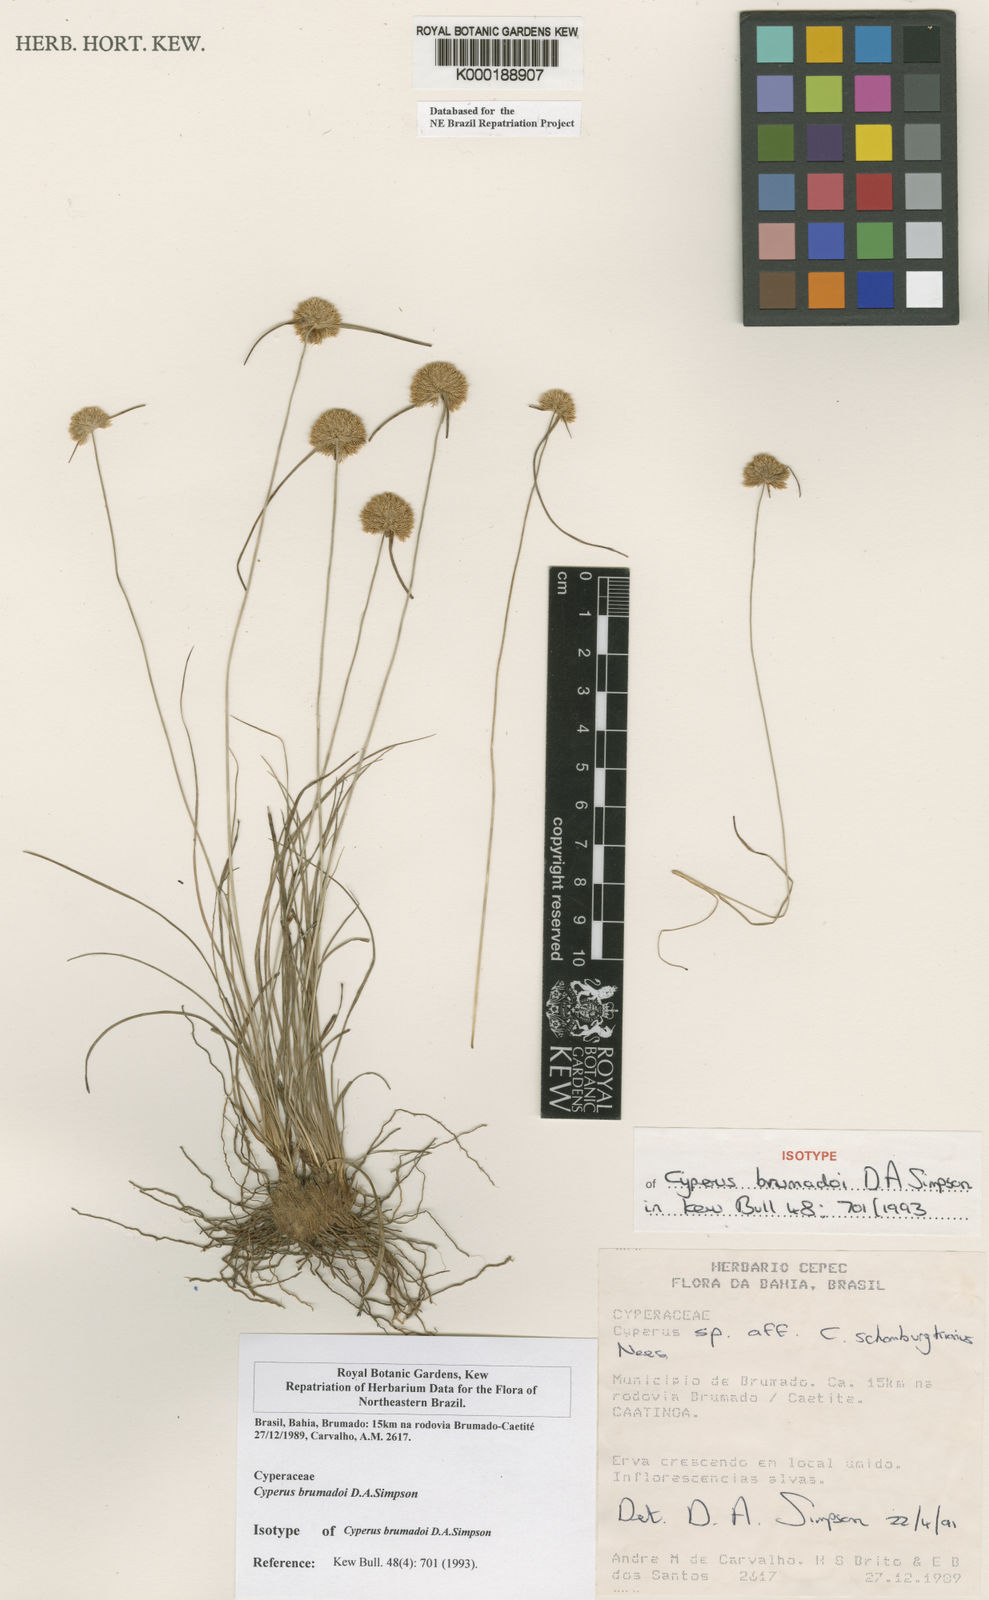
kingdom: Plantae
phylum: Tracheophyta
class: Liliopsida
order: Poales
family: Cyperaceae
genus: Cyperus
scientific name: Cyperus brumadoi
